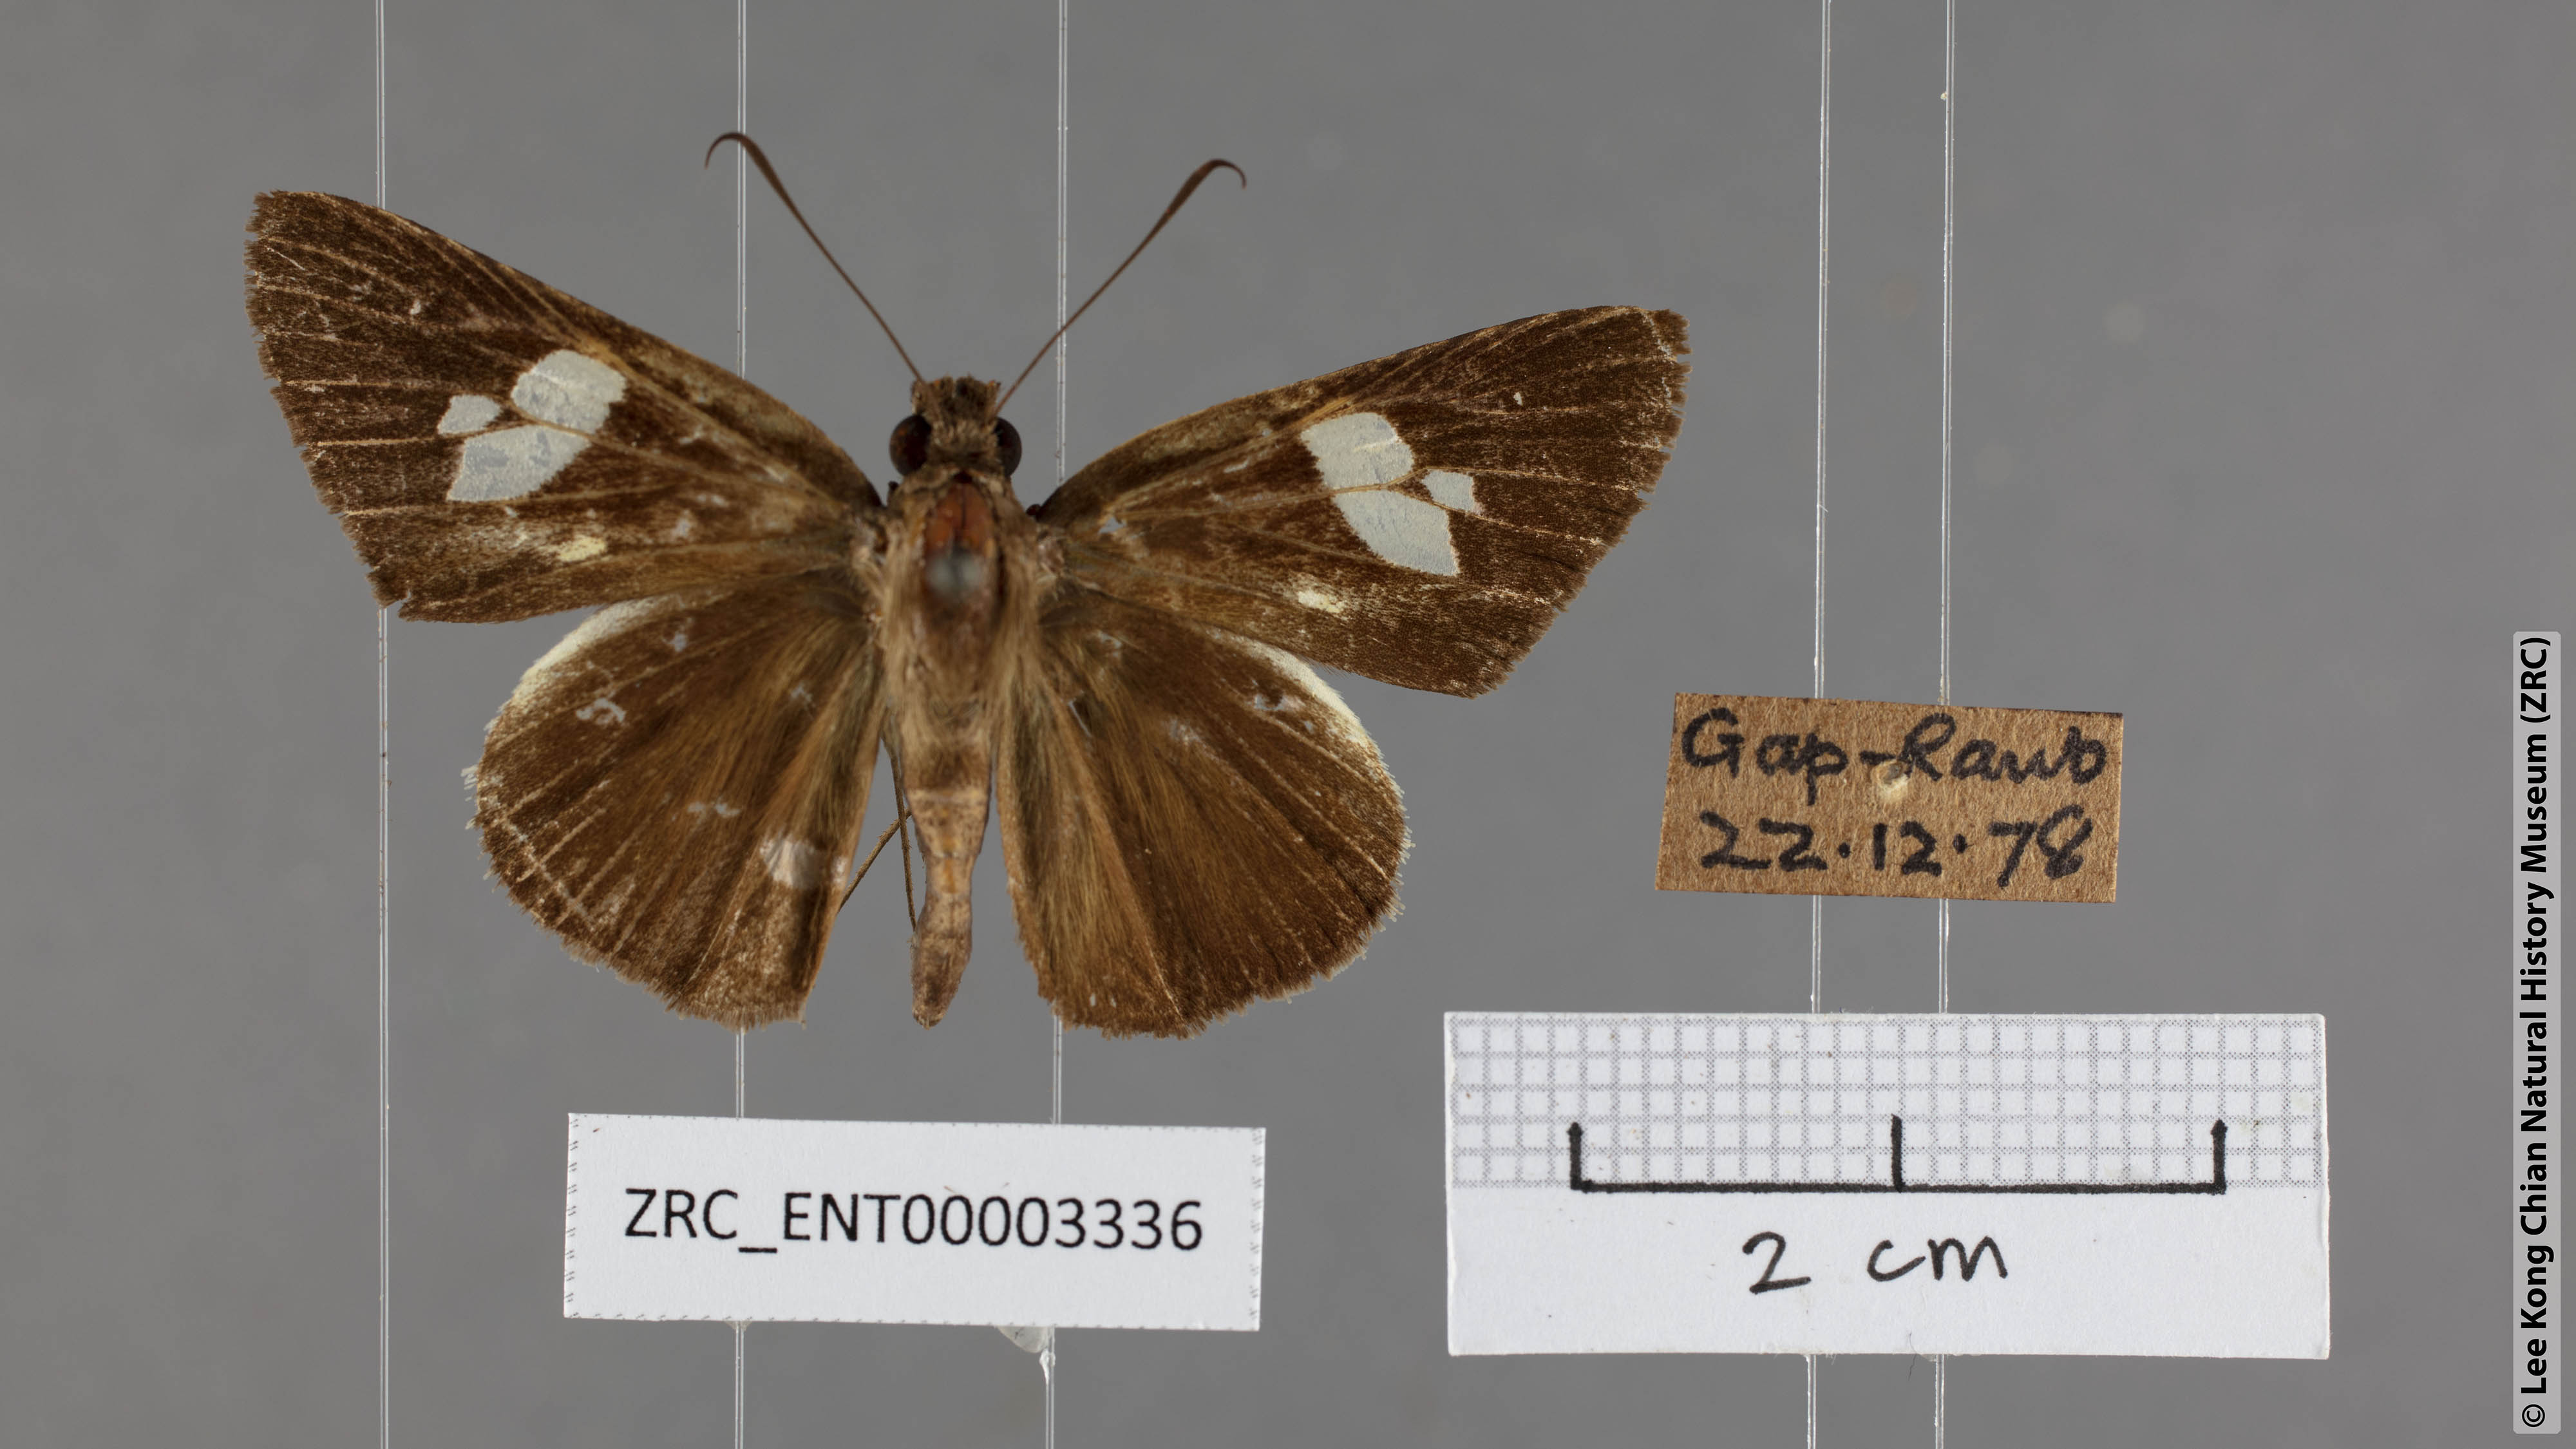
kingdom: Animalia
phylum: Arthropoda
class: Insecta
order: Lepidoptera
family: Hesperiidae
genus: Lotongus
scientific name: Lotongus calathus
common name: White-tipped palmer
